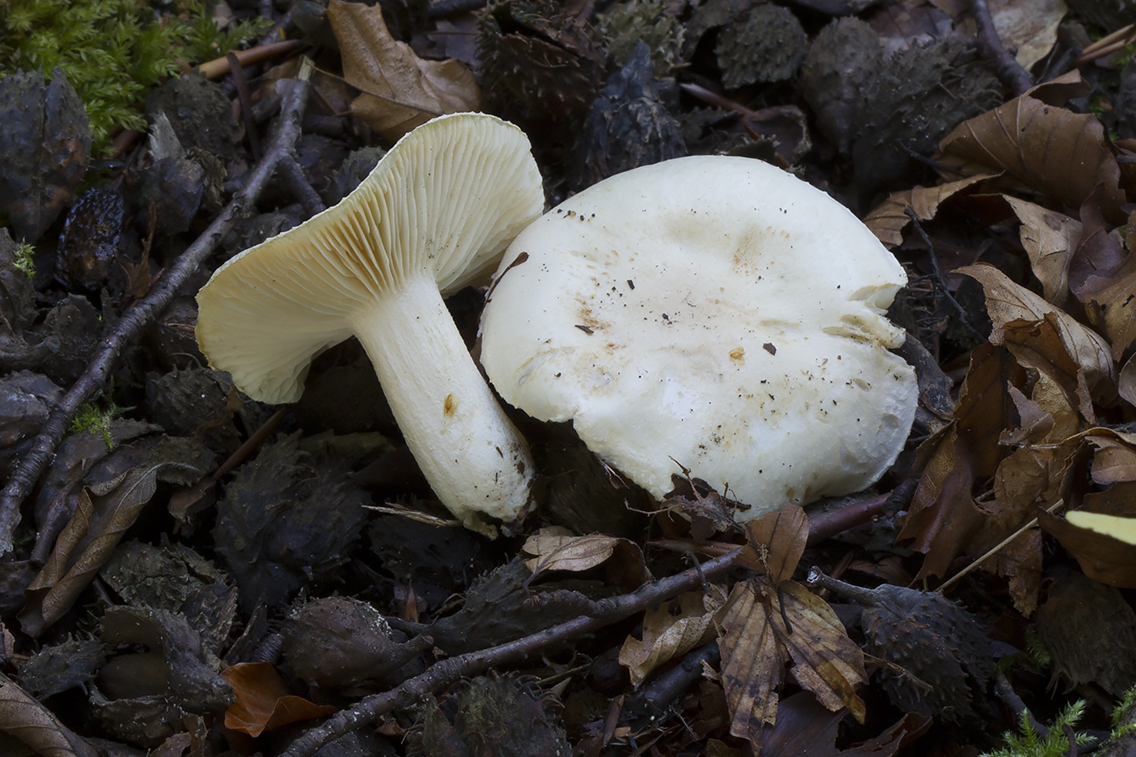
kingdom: Fungi
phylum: Basidiomycota
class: Agaricomycetes
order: Agaricales
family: Hygrophoraceae
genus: Hygrophorus
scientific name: Hygrophorus penarius
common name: spiselig sneglehat
